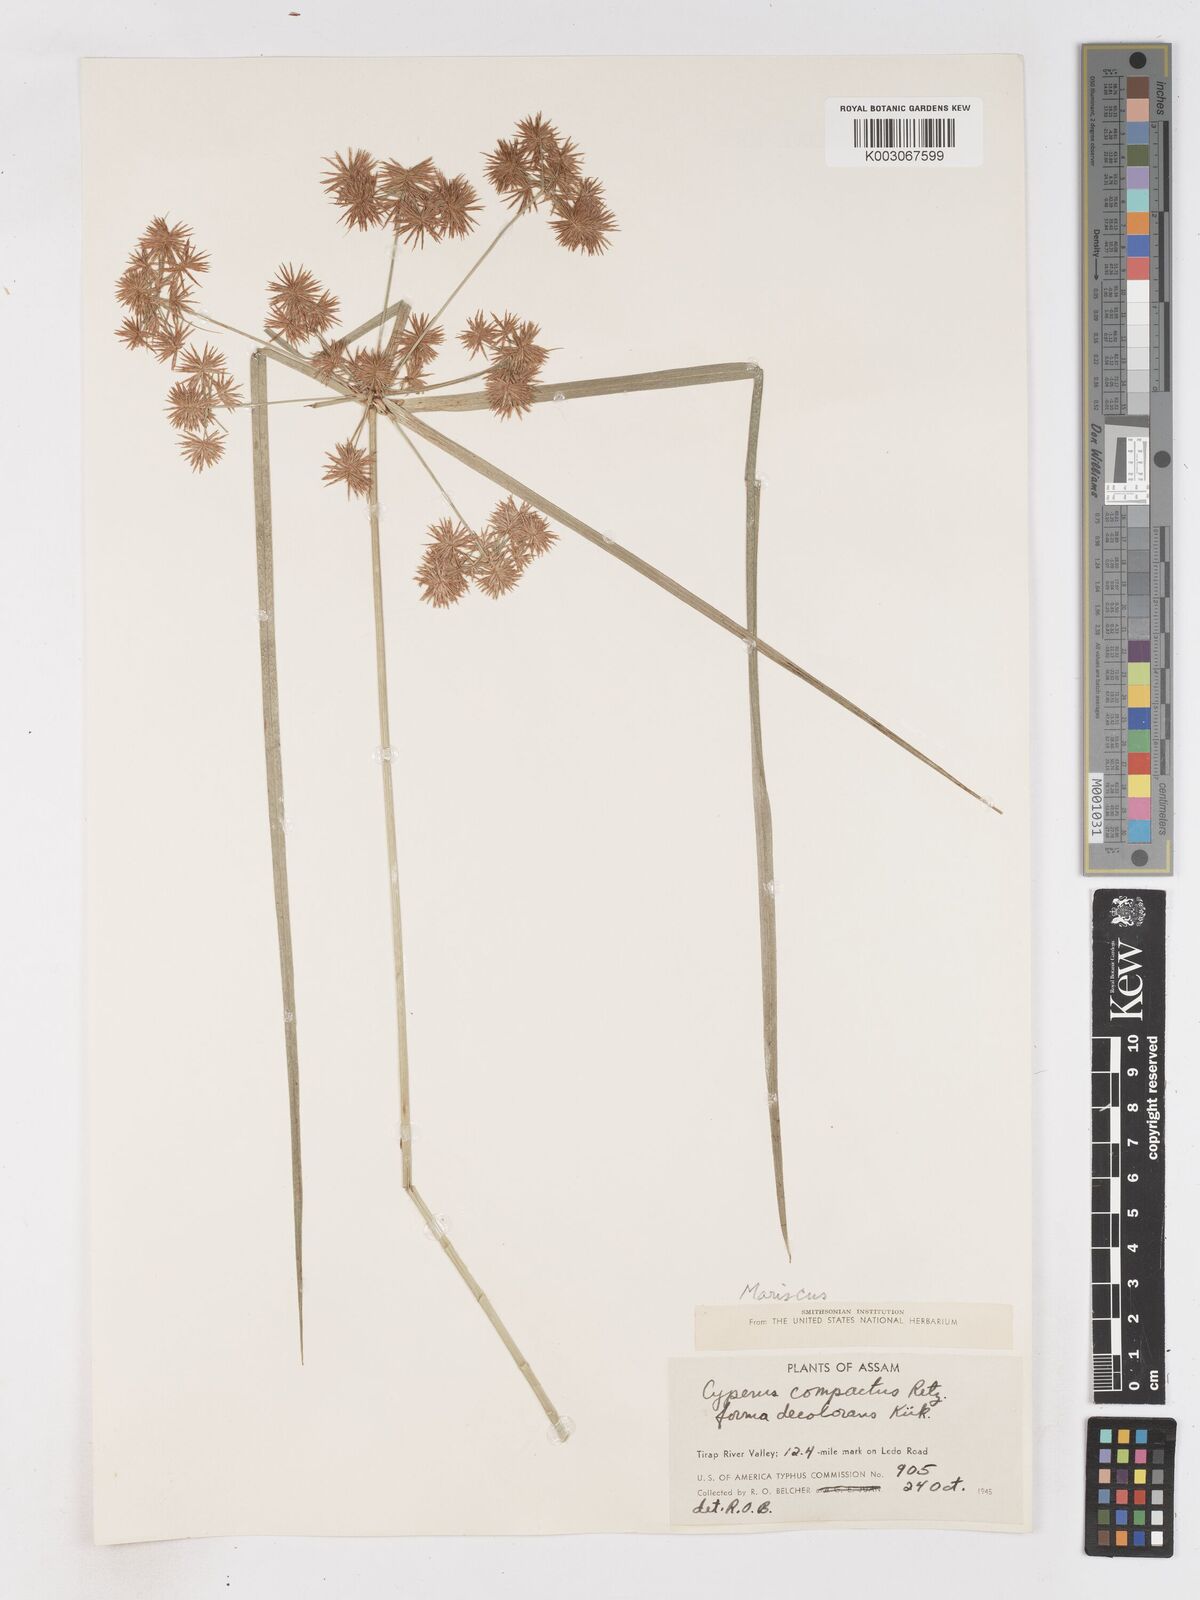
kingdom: Plantae
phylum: Tracheophyta
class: Liliopsida
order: Poales
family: Cyperaceae
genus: Cyperus
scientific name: Cyperus compactus
